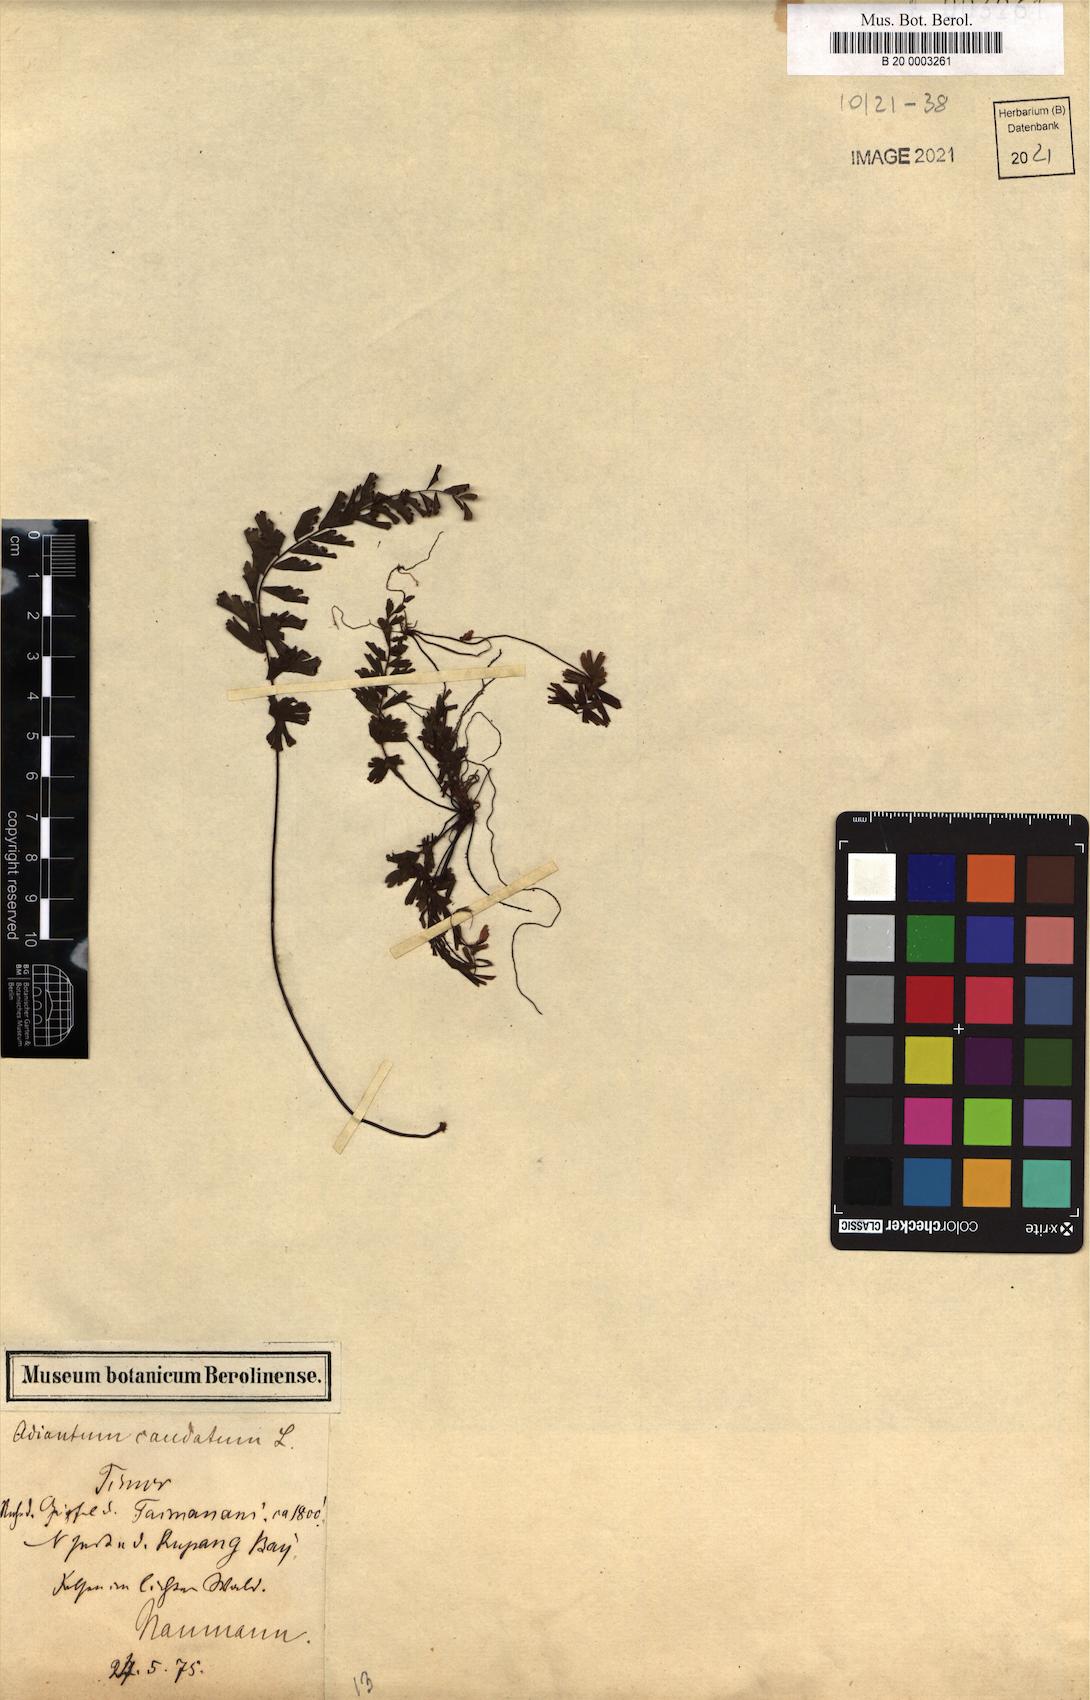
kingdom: Plantae
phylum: Tracheophyta
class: Polypodiopsida
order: Polypodiales
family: Pteridaceae
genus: Adiantum
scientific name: Adiantum caudatum
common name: Tailed maidenhair
